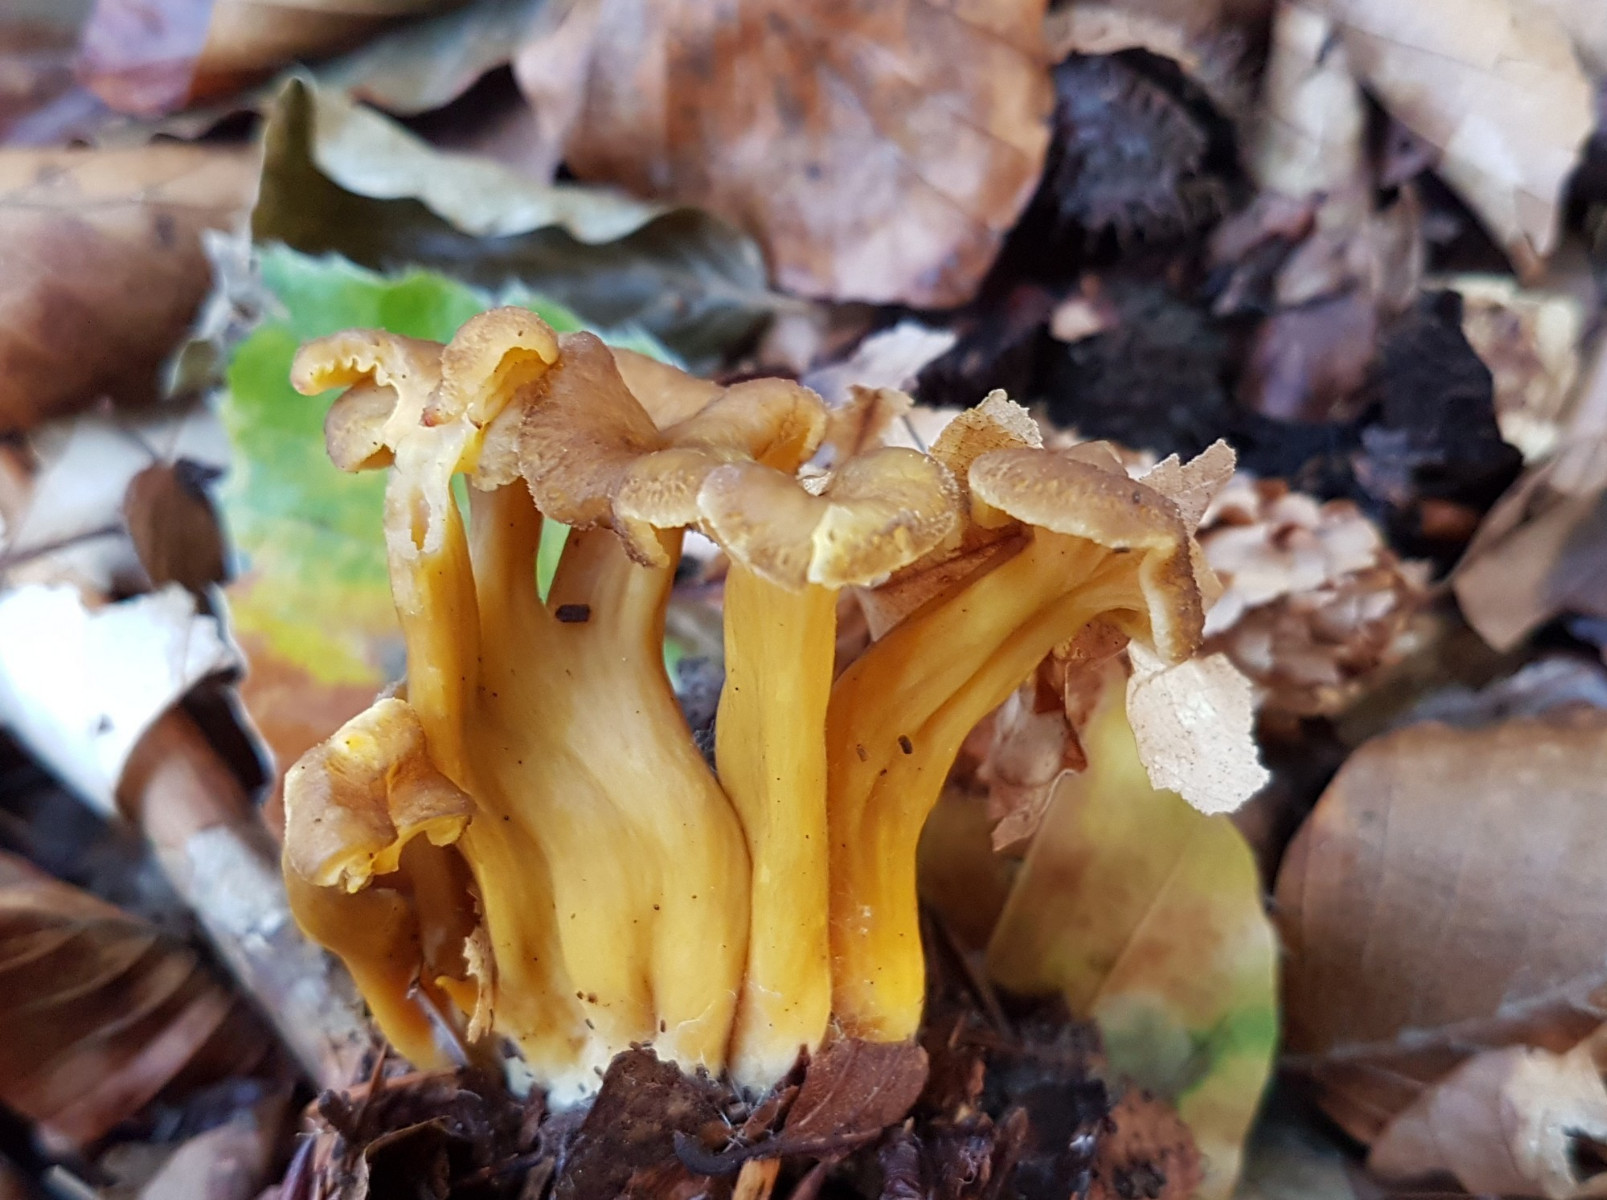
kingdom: Fungi
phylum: Basidiomycota
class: Agaricomycetes
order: Cantharellales
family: Hydnaceae
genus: Craterellus
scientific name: Craterellus tubaeformis
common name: tragt-kantarel
